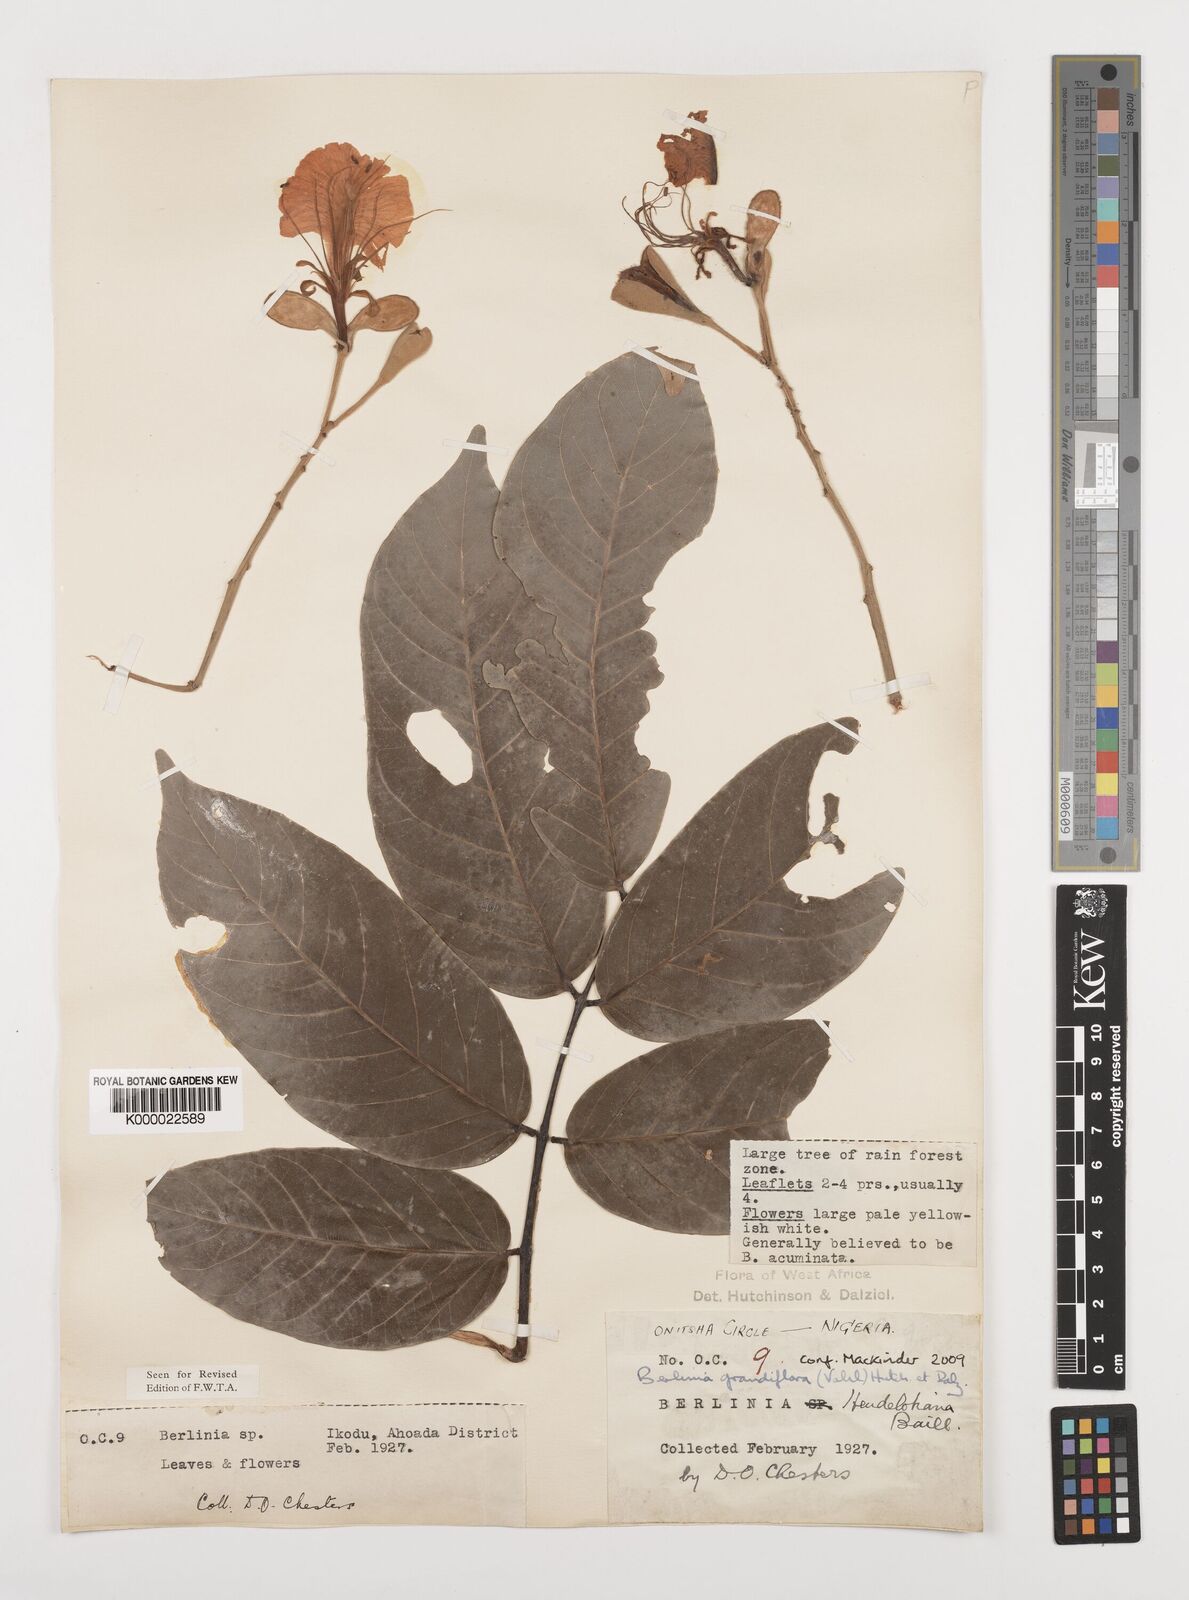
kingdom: Plantae
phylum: Tracheophyta
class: Magnoliopsida
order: Fabales
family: Fabaceae
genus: Berlinia
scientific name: Berlinia grandiflora
